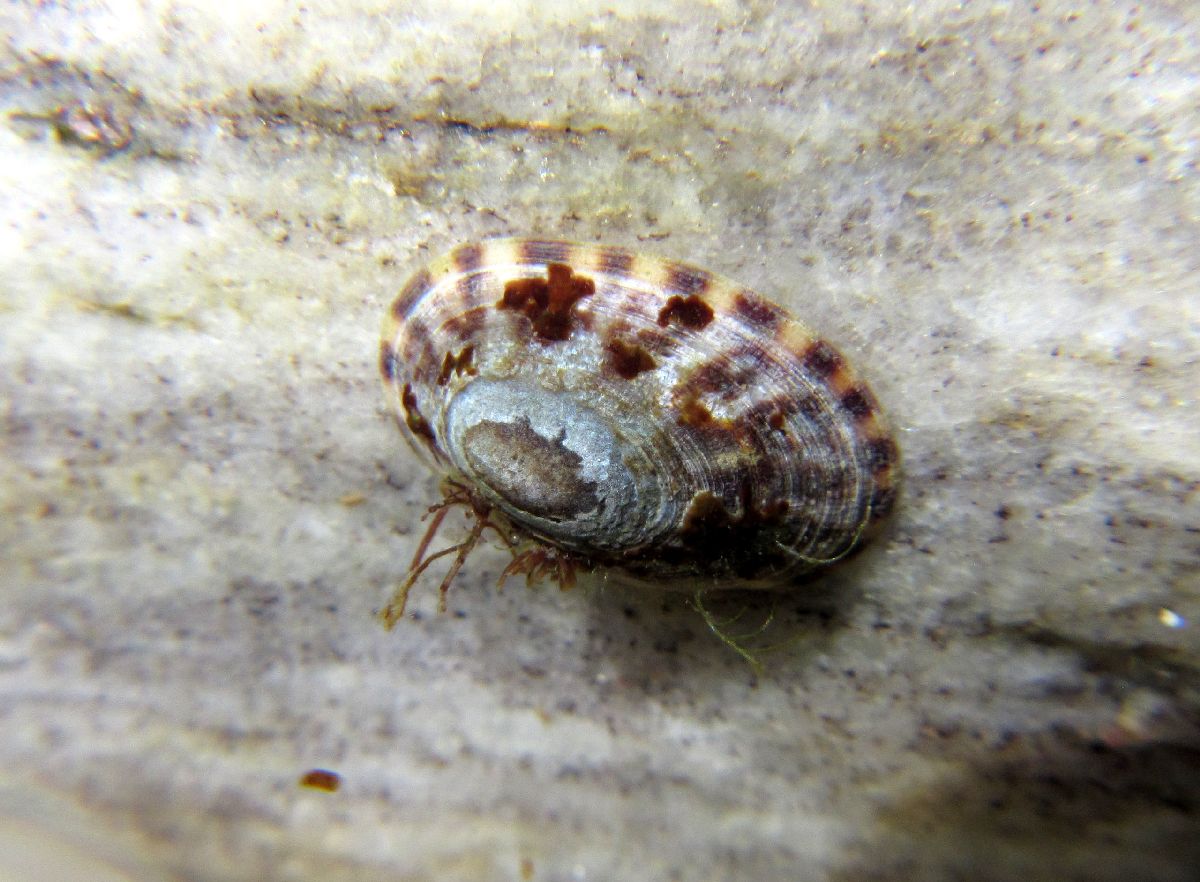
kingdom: Animalia
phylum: Mollusca
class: Gastropoda
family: Lottiidae
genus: Testudinalia
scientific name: Testudinalia testudinalis
